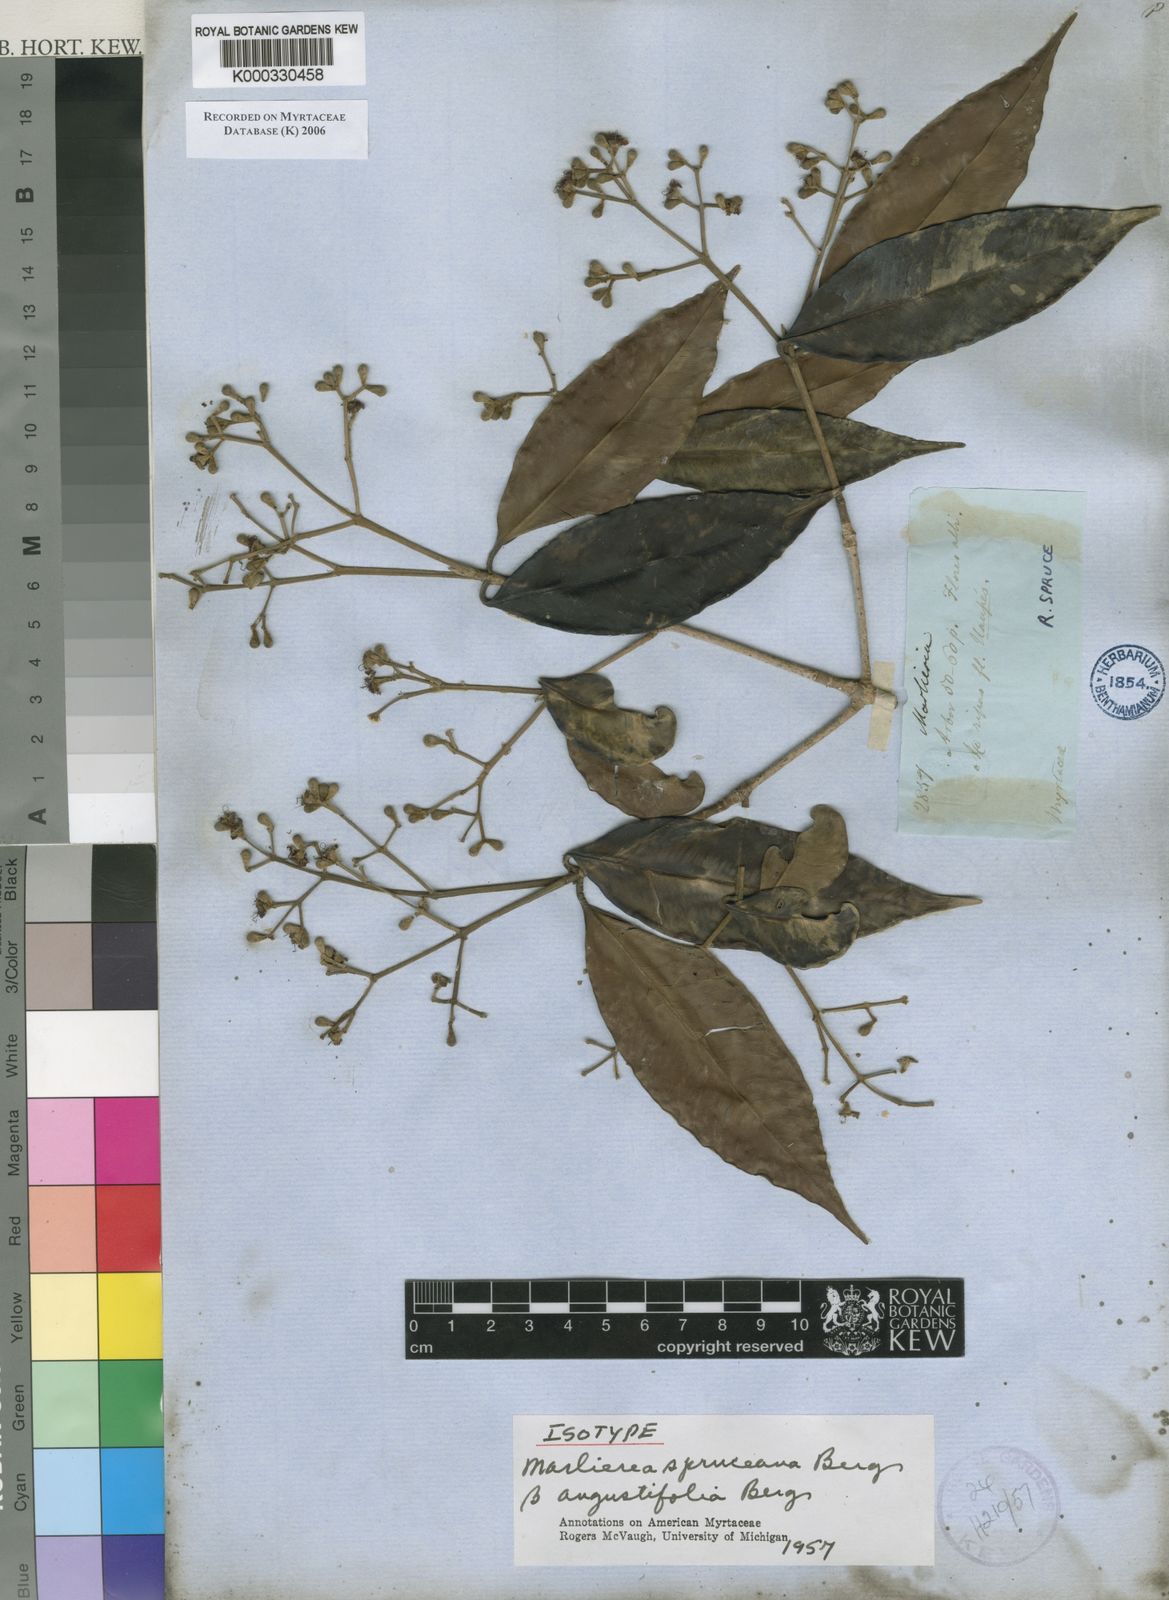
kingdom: Plantae
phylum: Tracheophyta
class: Magnoliopsida
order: Myrtales
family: Myrtaceae
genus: Myrcia
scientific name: Myrcia argentigemma
